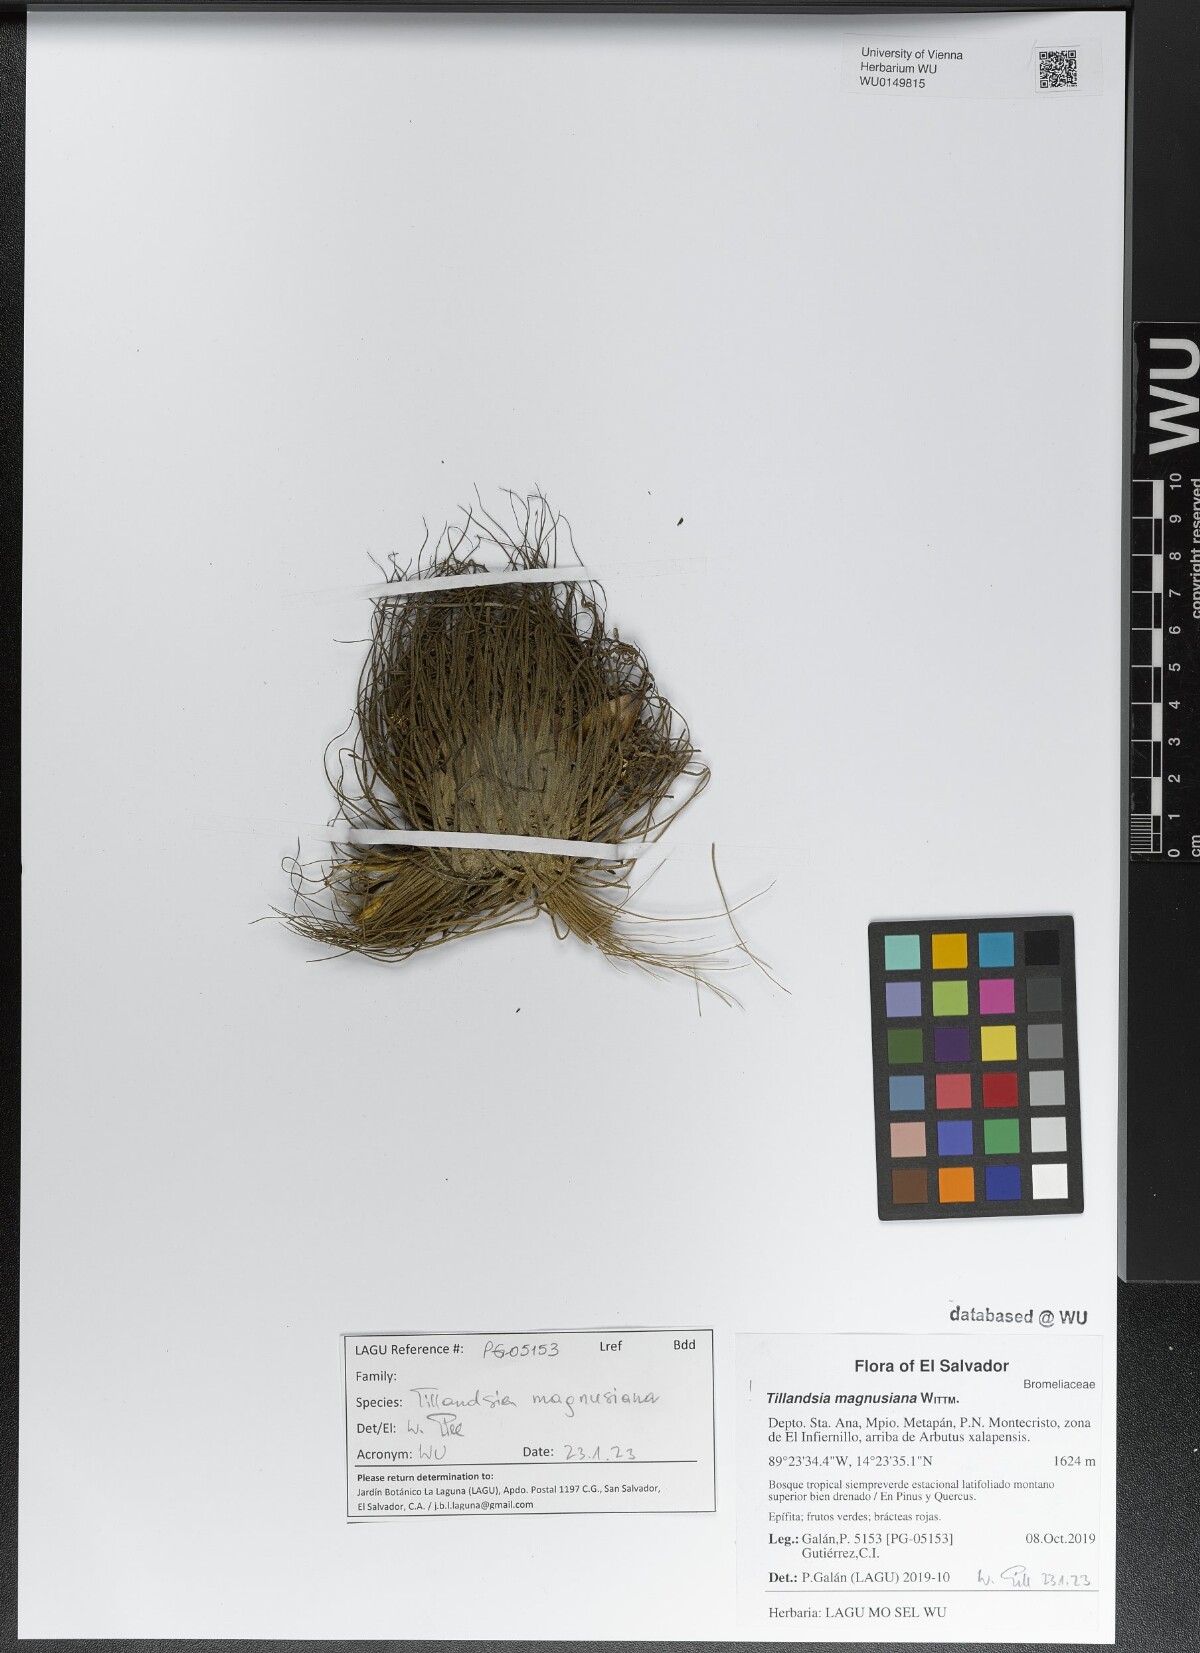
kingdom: Plantae
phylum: Tracheophyta
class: Liliopsida
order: Poales
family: Bromeliaceae
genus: Tillandsia
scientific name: Tillandsia magnusiana
